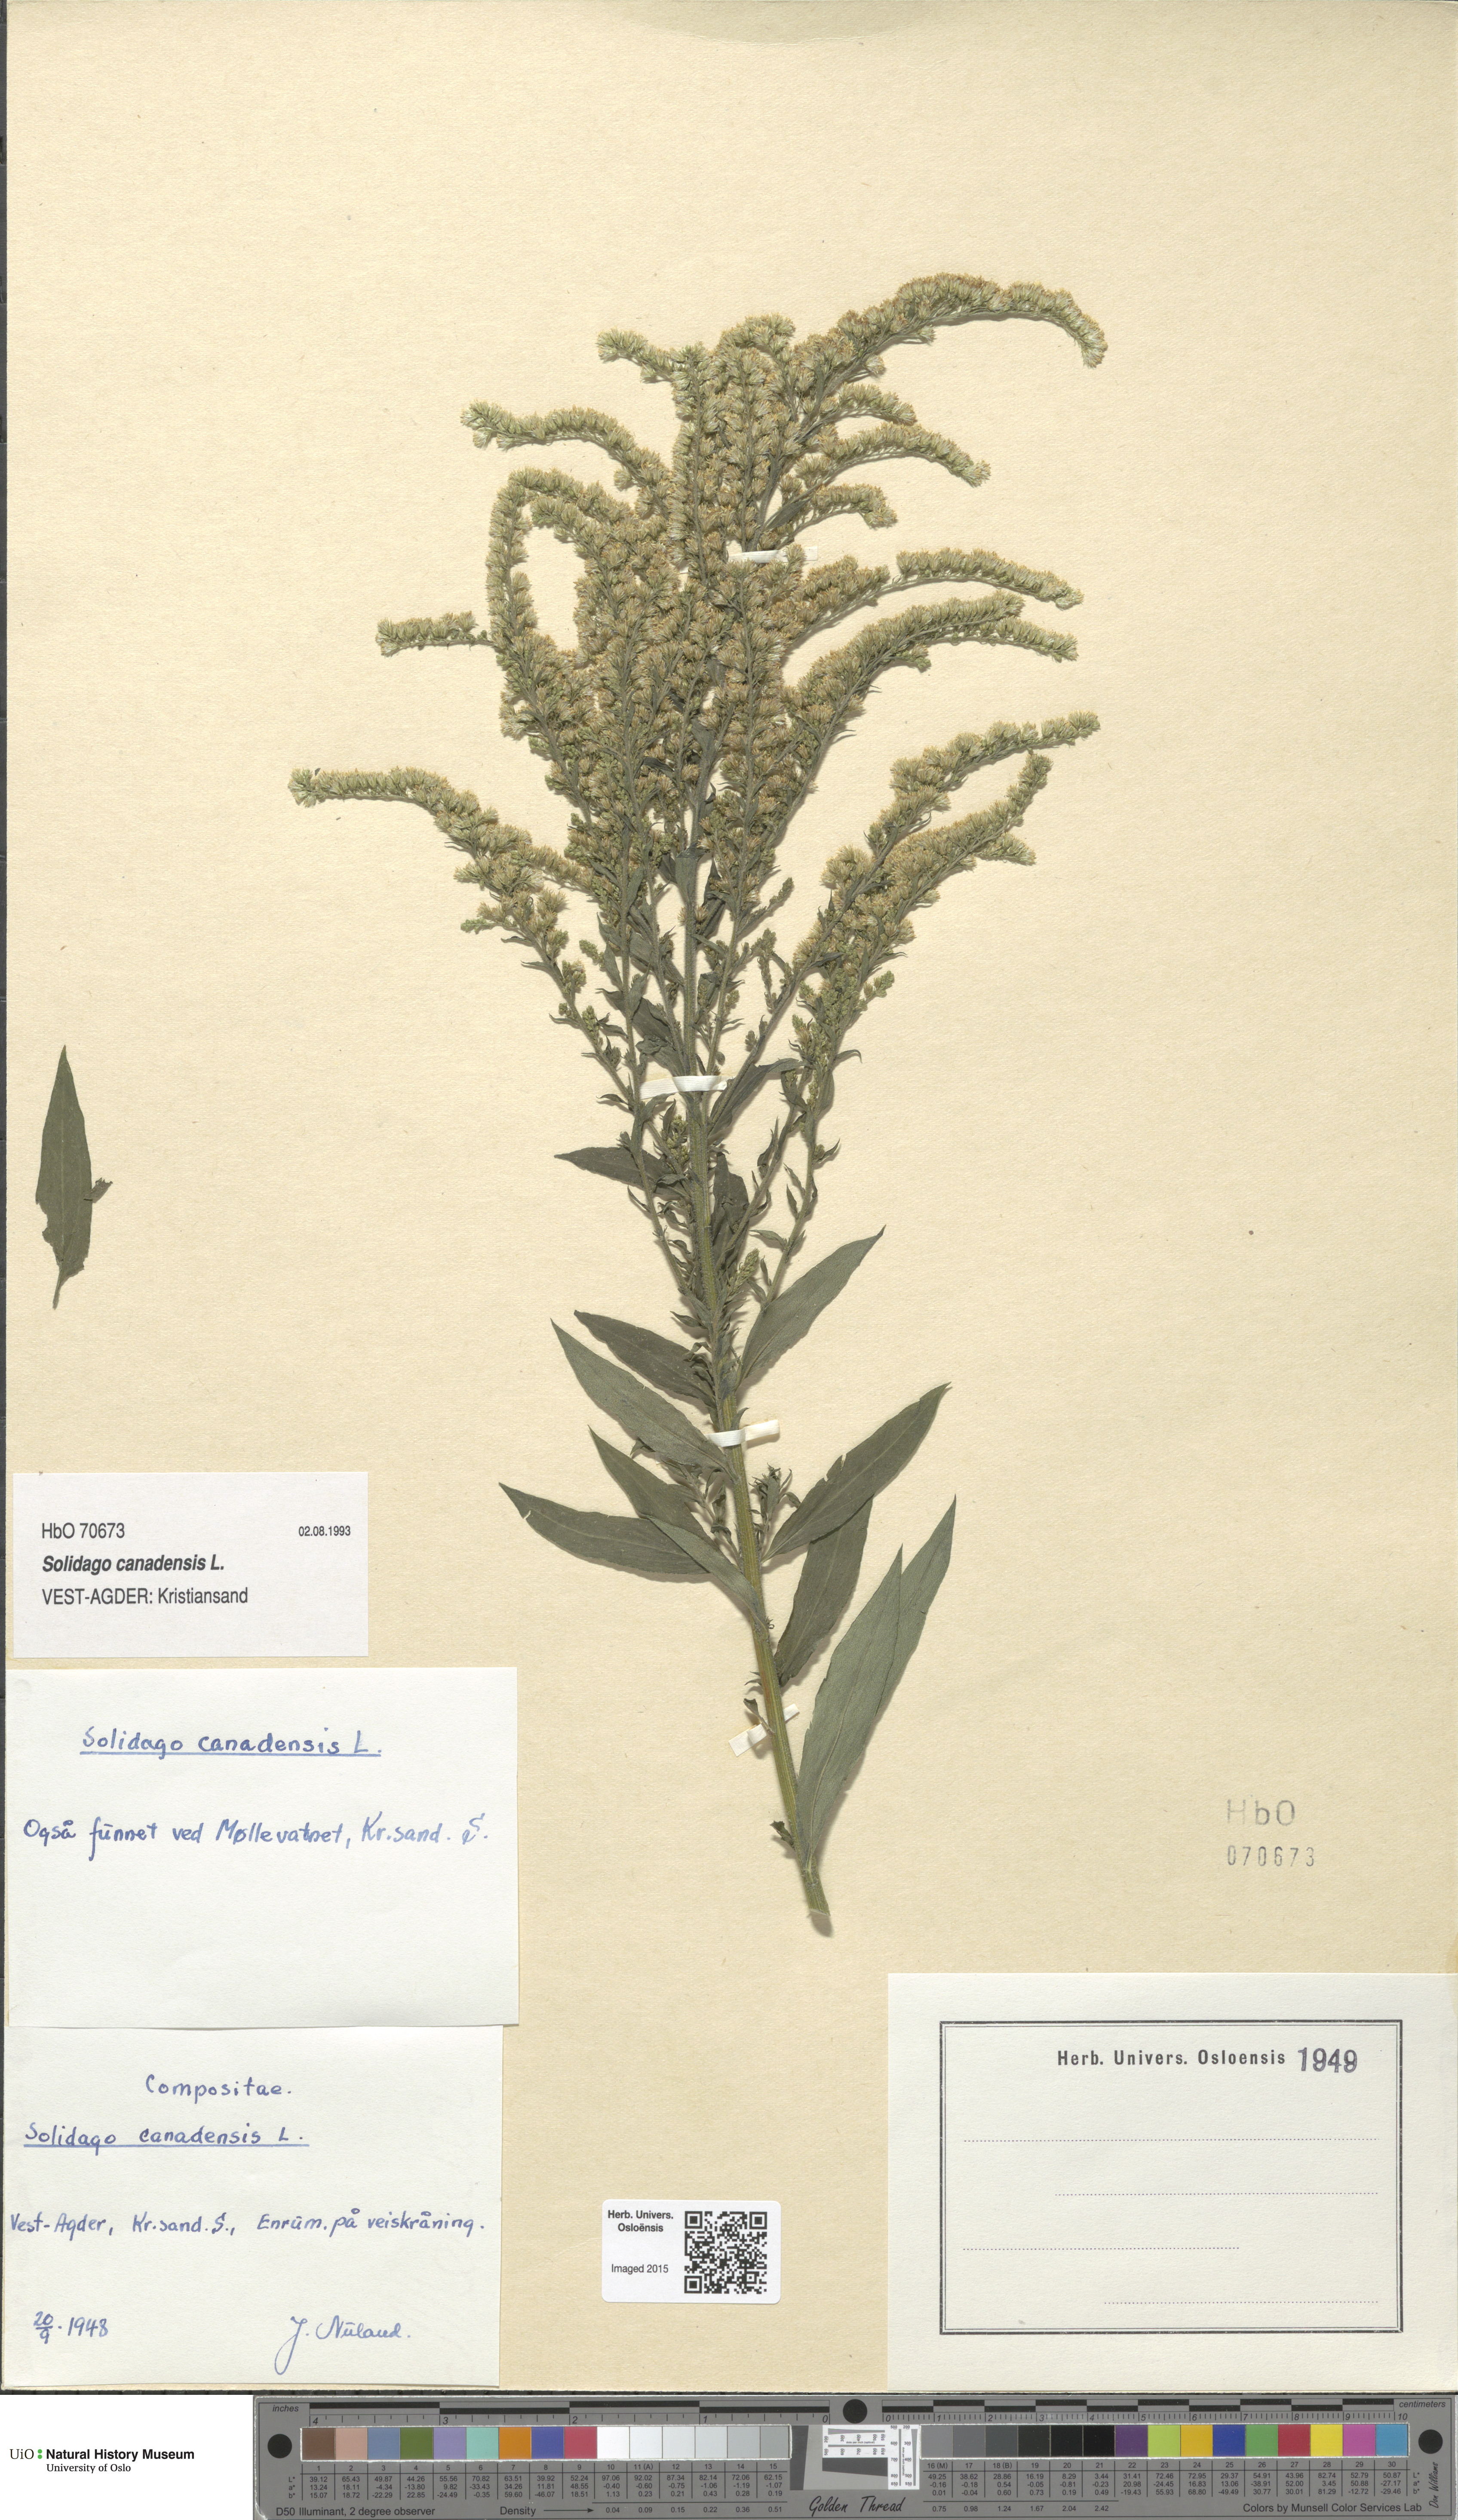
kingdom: Plantae
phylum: Tracheophyta
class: Magnoliopsida
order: Asterales
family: Asteraceae
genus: Solidago
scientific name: Solidago canadensis
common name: Canada goldenrod
